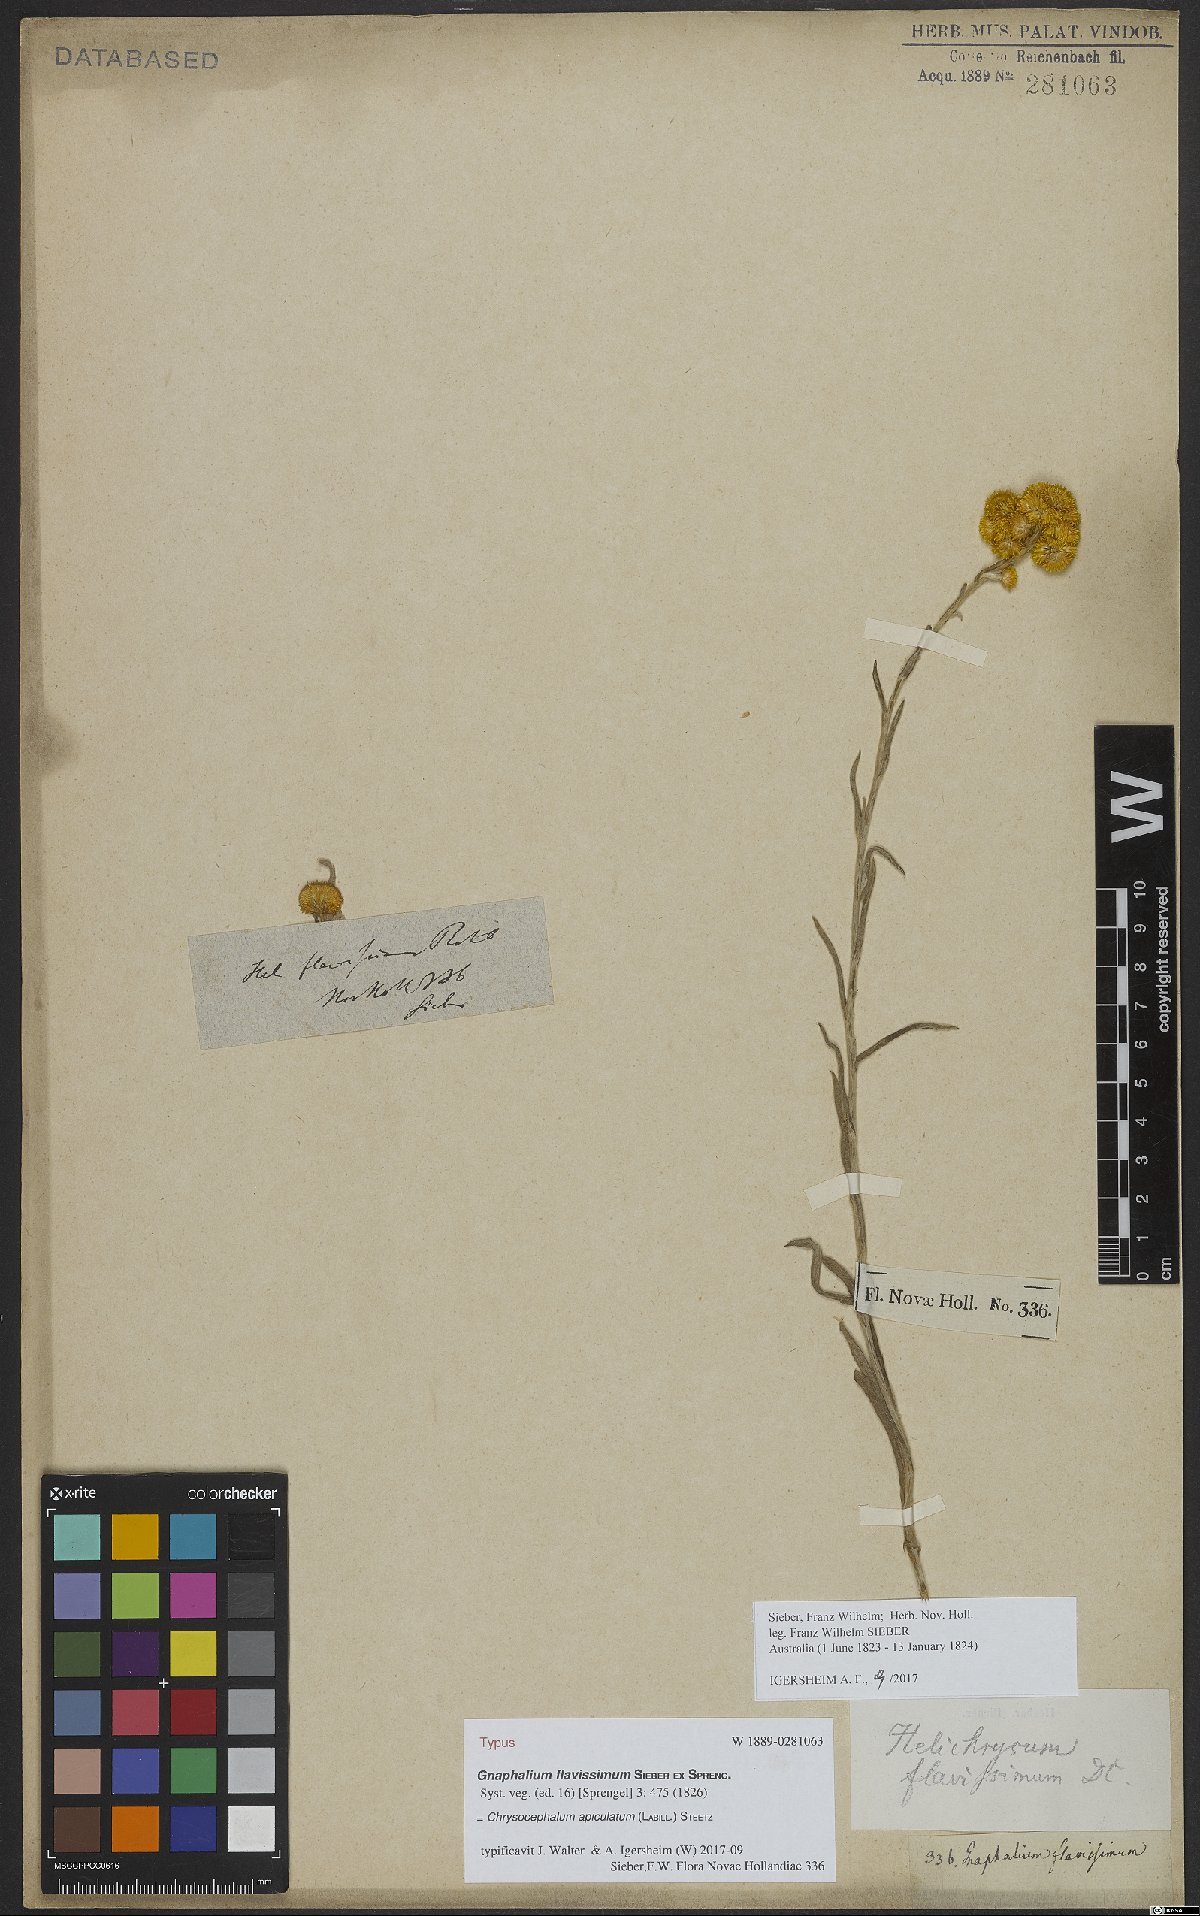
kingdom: Plantae
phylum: Tracheophyta
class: Magnoliopsida
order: Asterales
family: Asteraceae
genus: Chrysocephalum
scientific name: Chrysocephalum apiculatum
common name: Common everlasting
